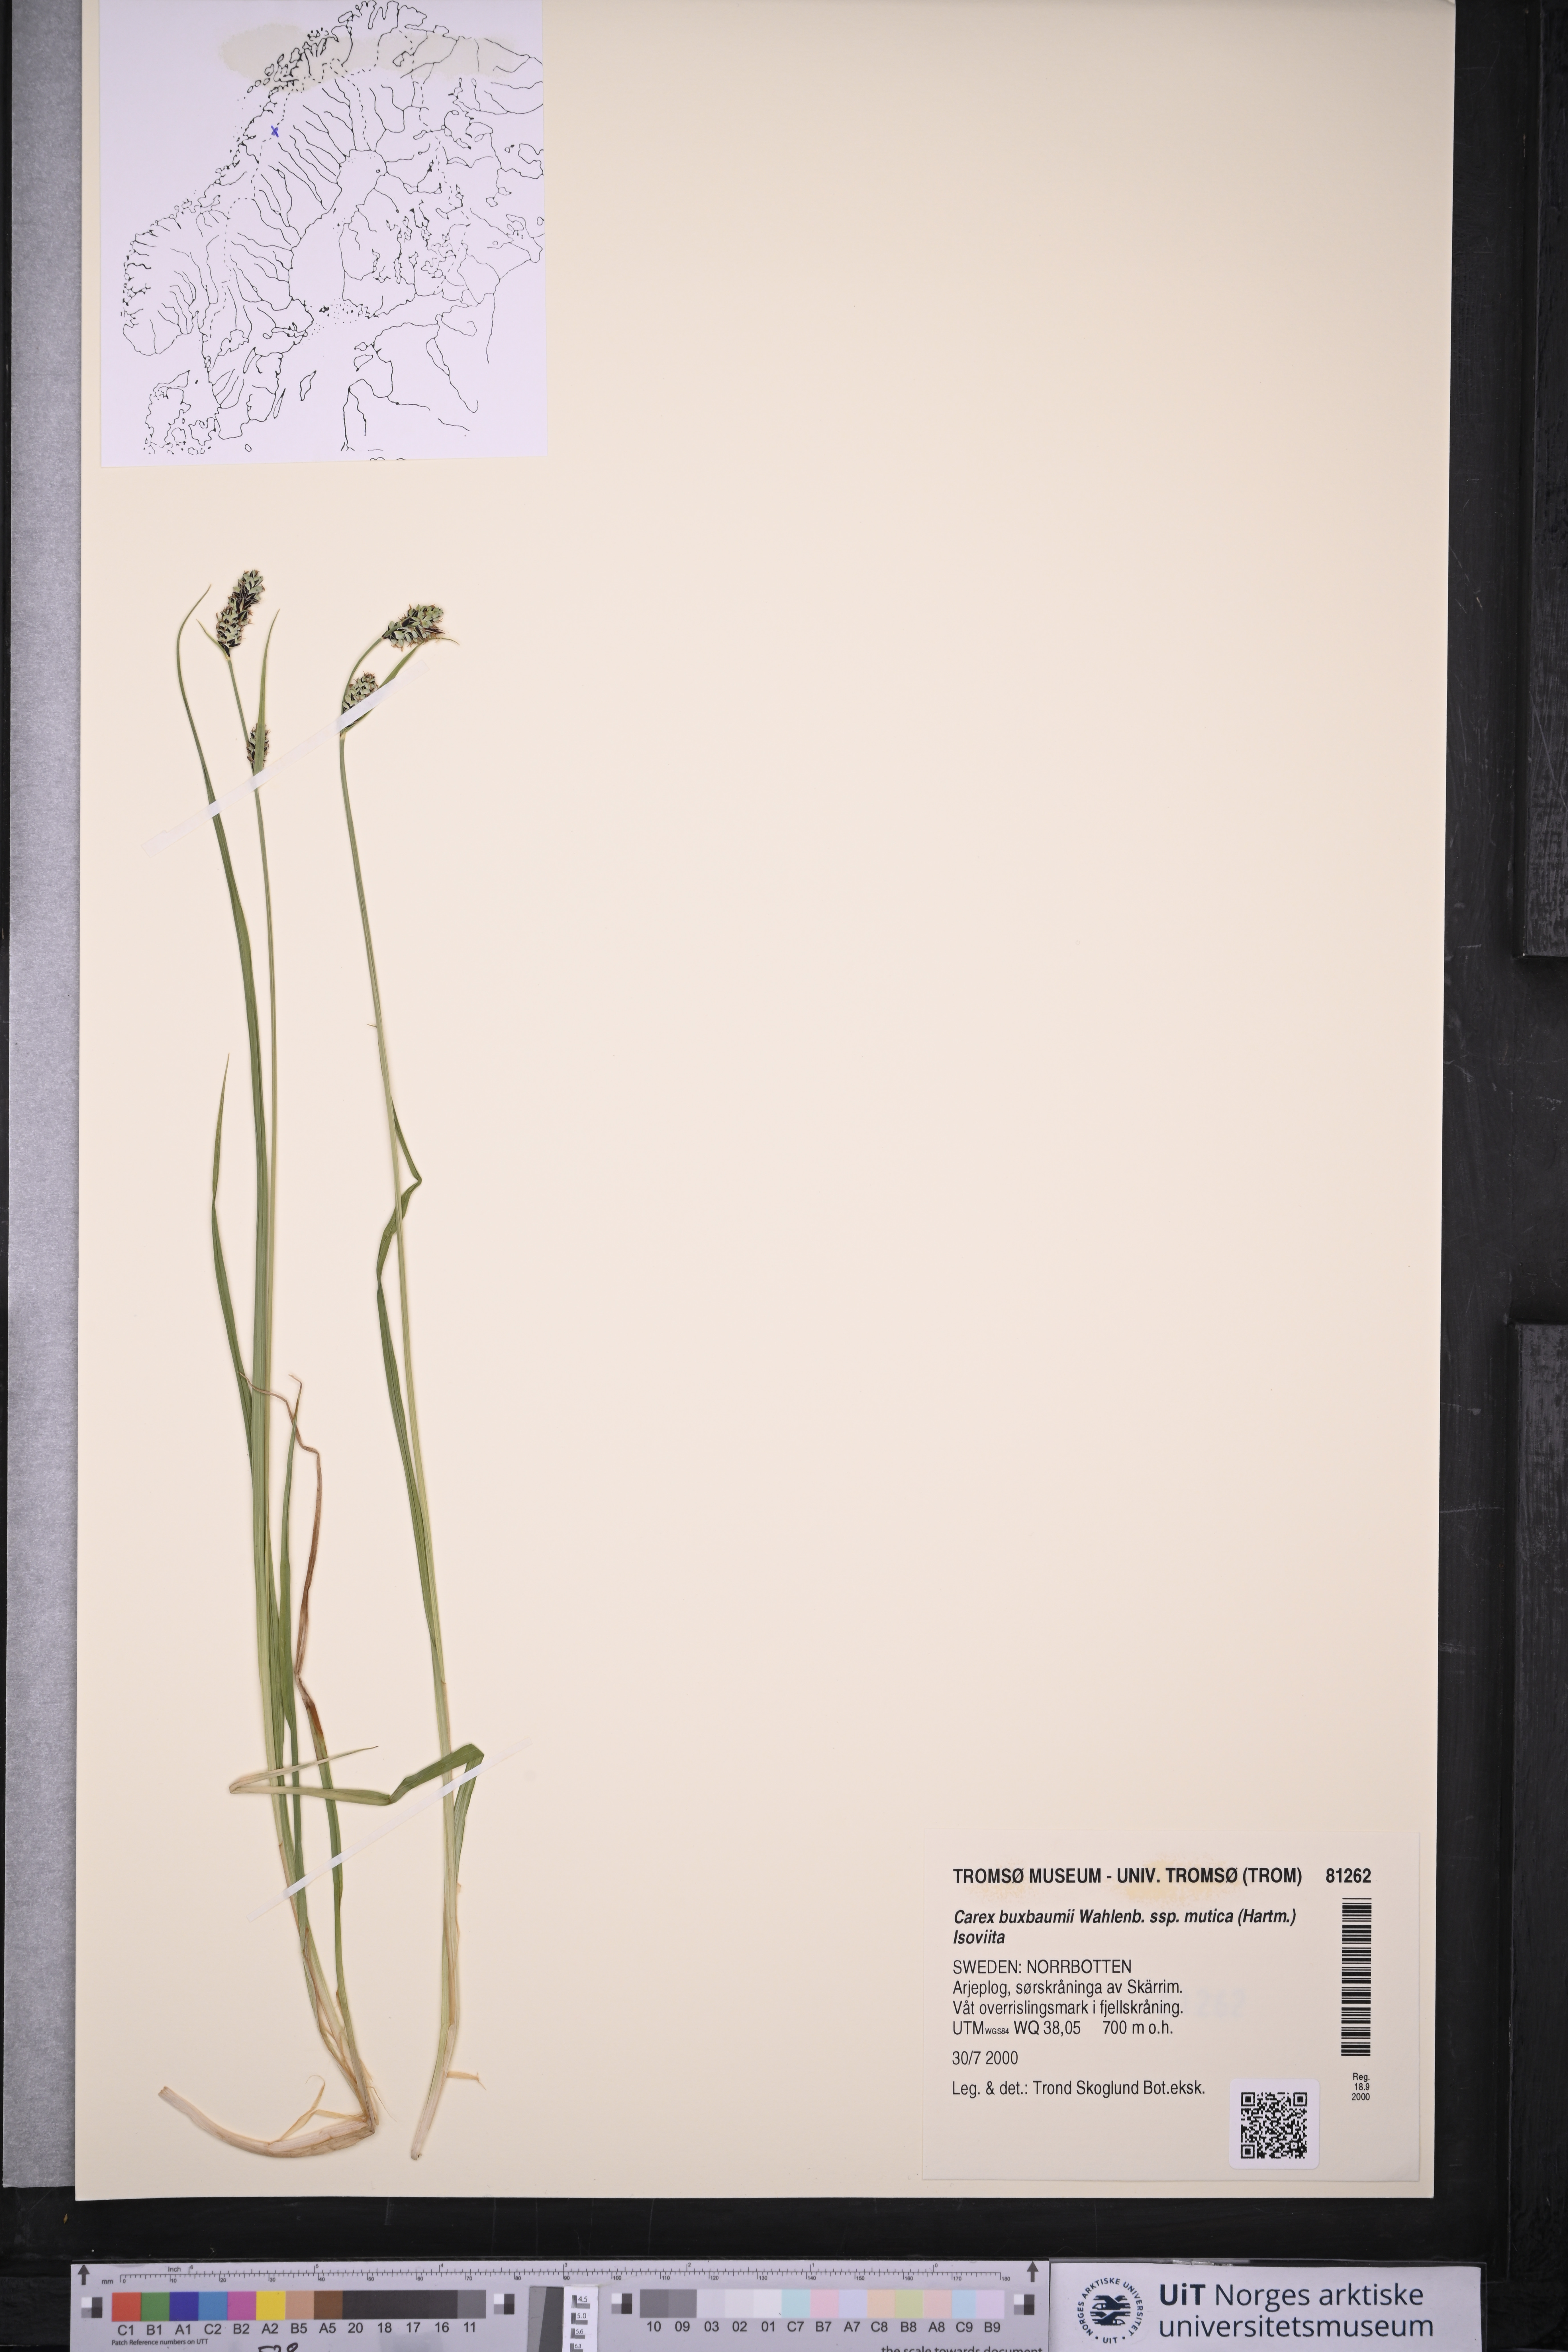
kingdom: Plantae
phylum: Tracheophyta
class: Liliopsida
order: Poales
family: Cyperaceae
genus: Carex
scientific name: Carex adelostoma
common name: Circumpolar sedge
